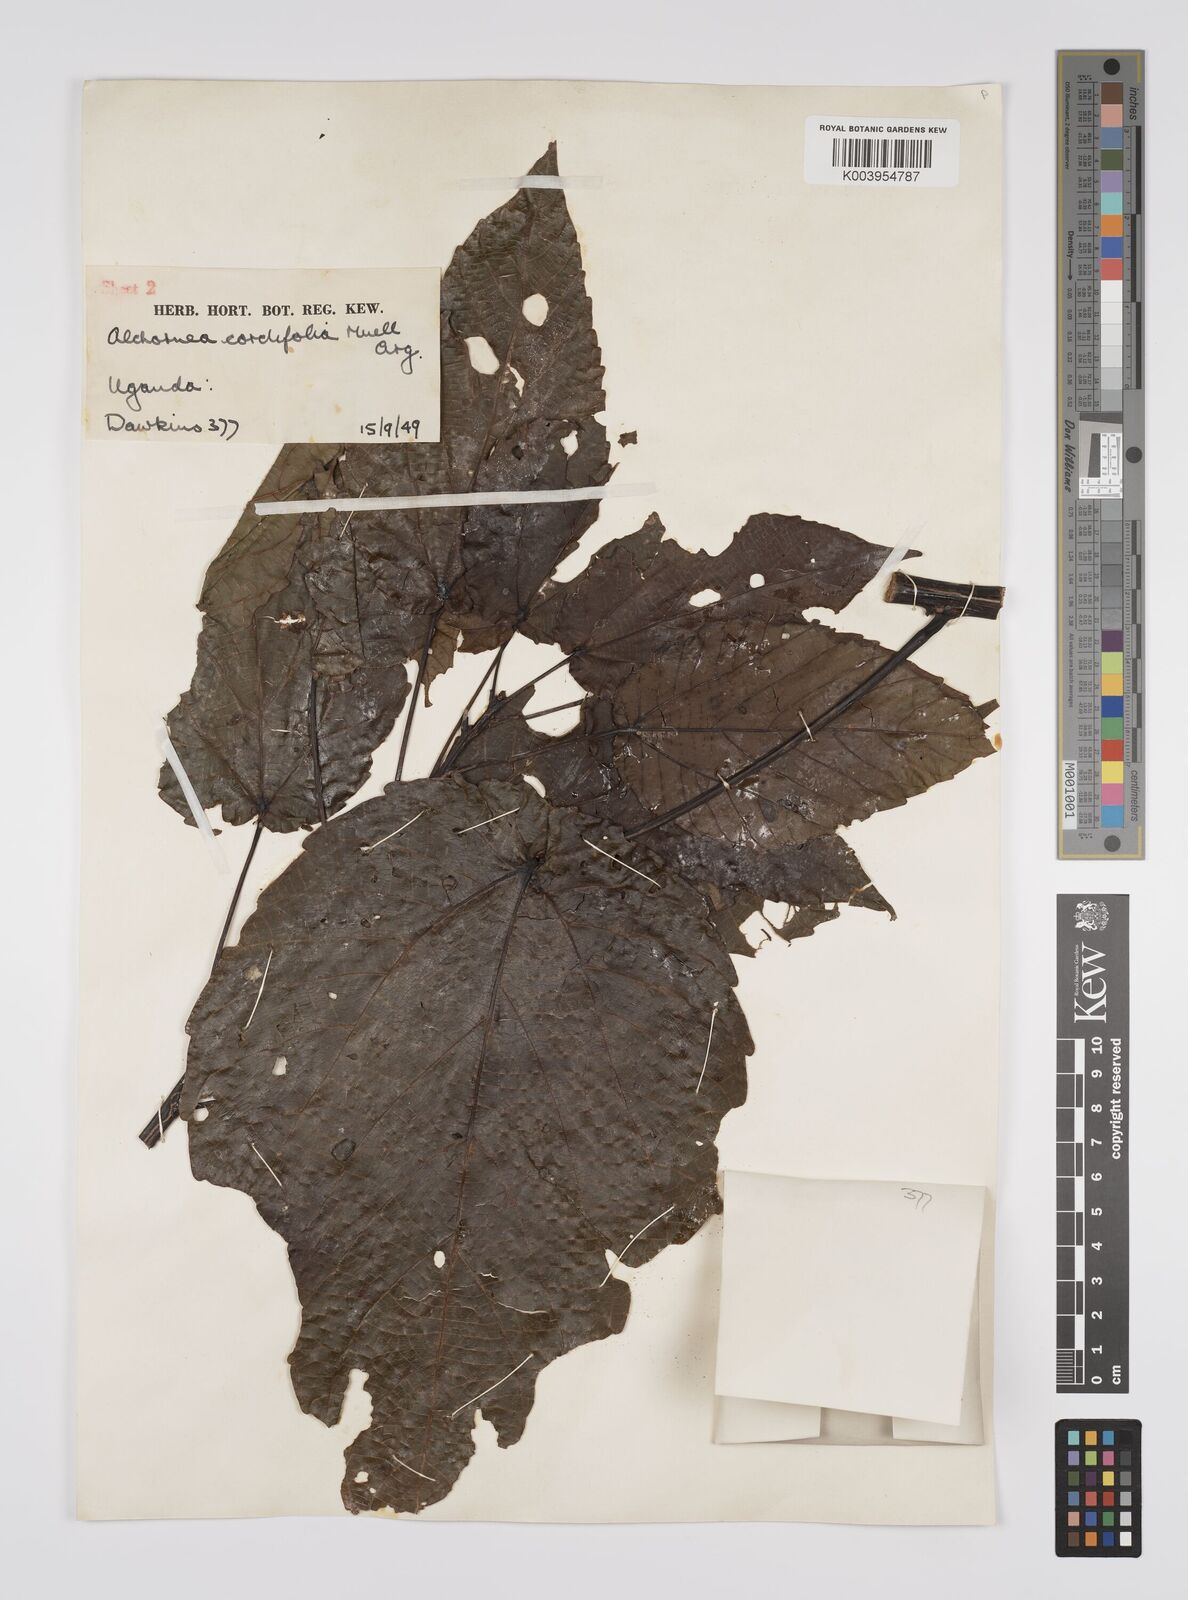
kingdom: Plantae
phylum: Tracheophyta
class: Magnoliopsida
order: Malpighiales
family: Euphorbiaceae
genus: Alchornea
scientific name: Alchornea cordifolia
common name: Christmasbush
